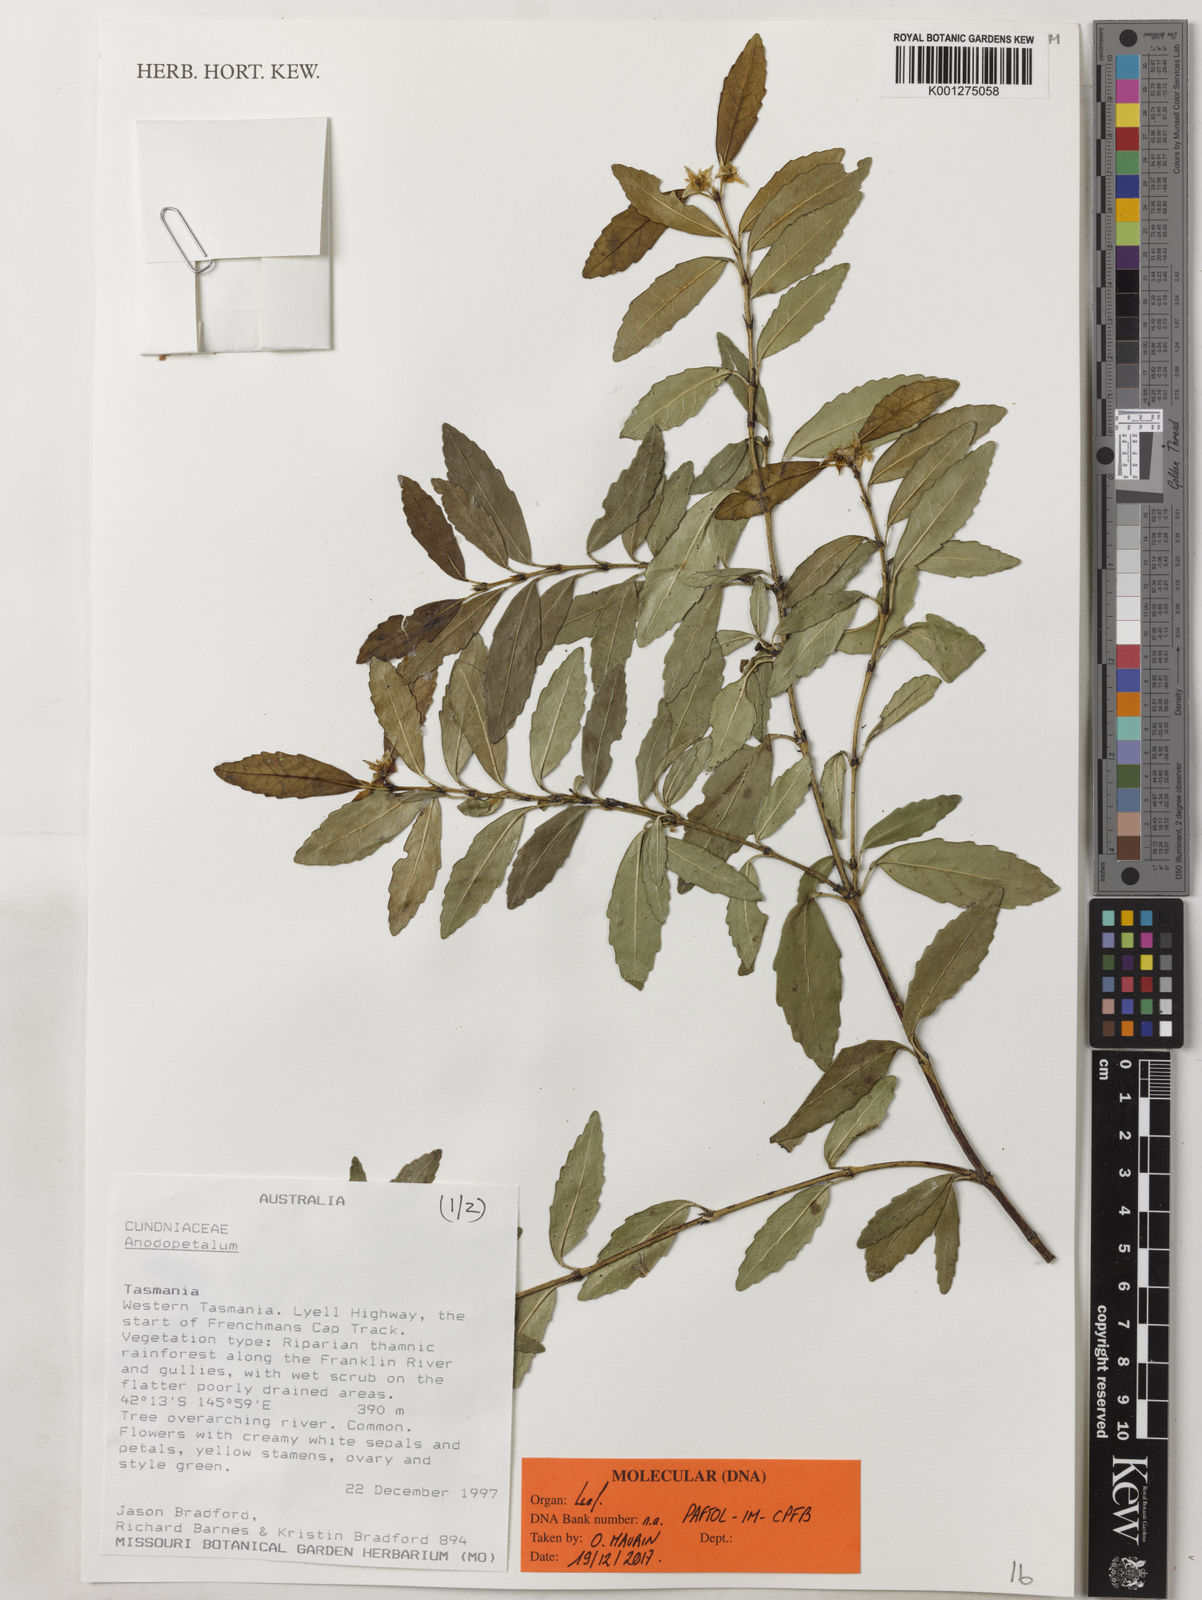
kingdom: Plantae
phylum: Tracheophyta
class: Magnoliopsida
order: Oxalidales
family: Cunoniaceae
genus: Anodopetalum
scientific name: Anodopetalum
